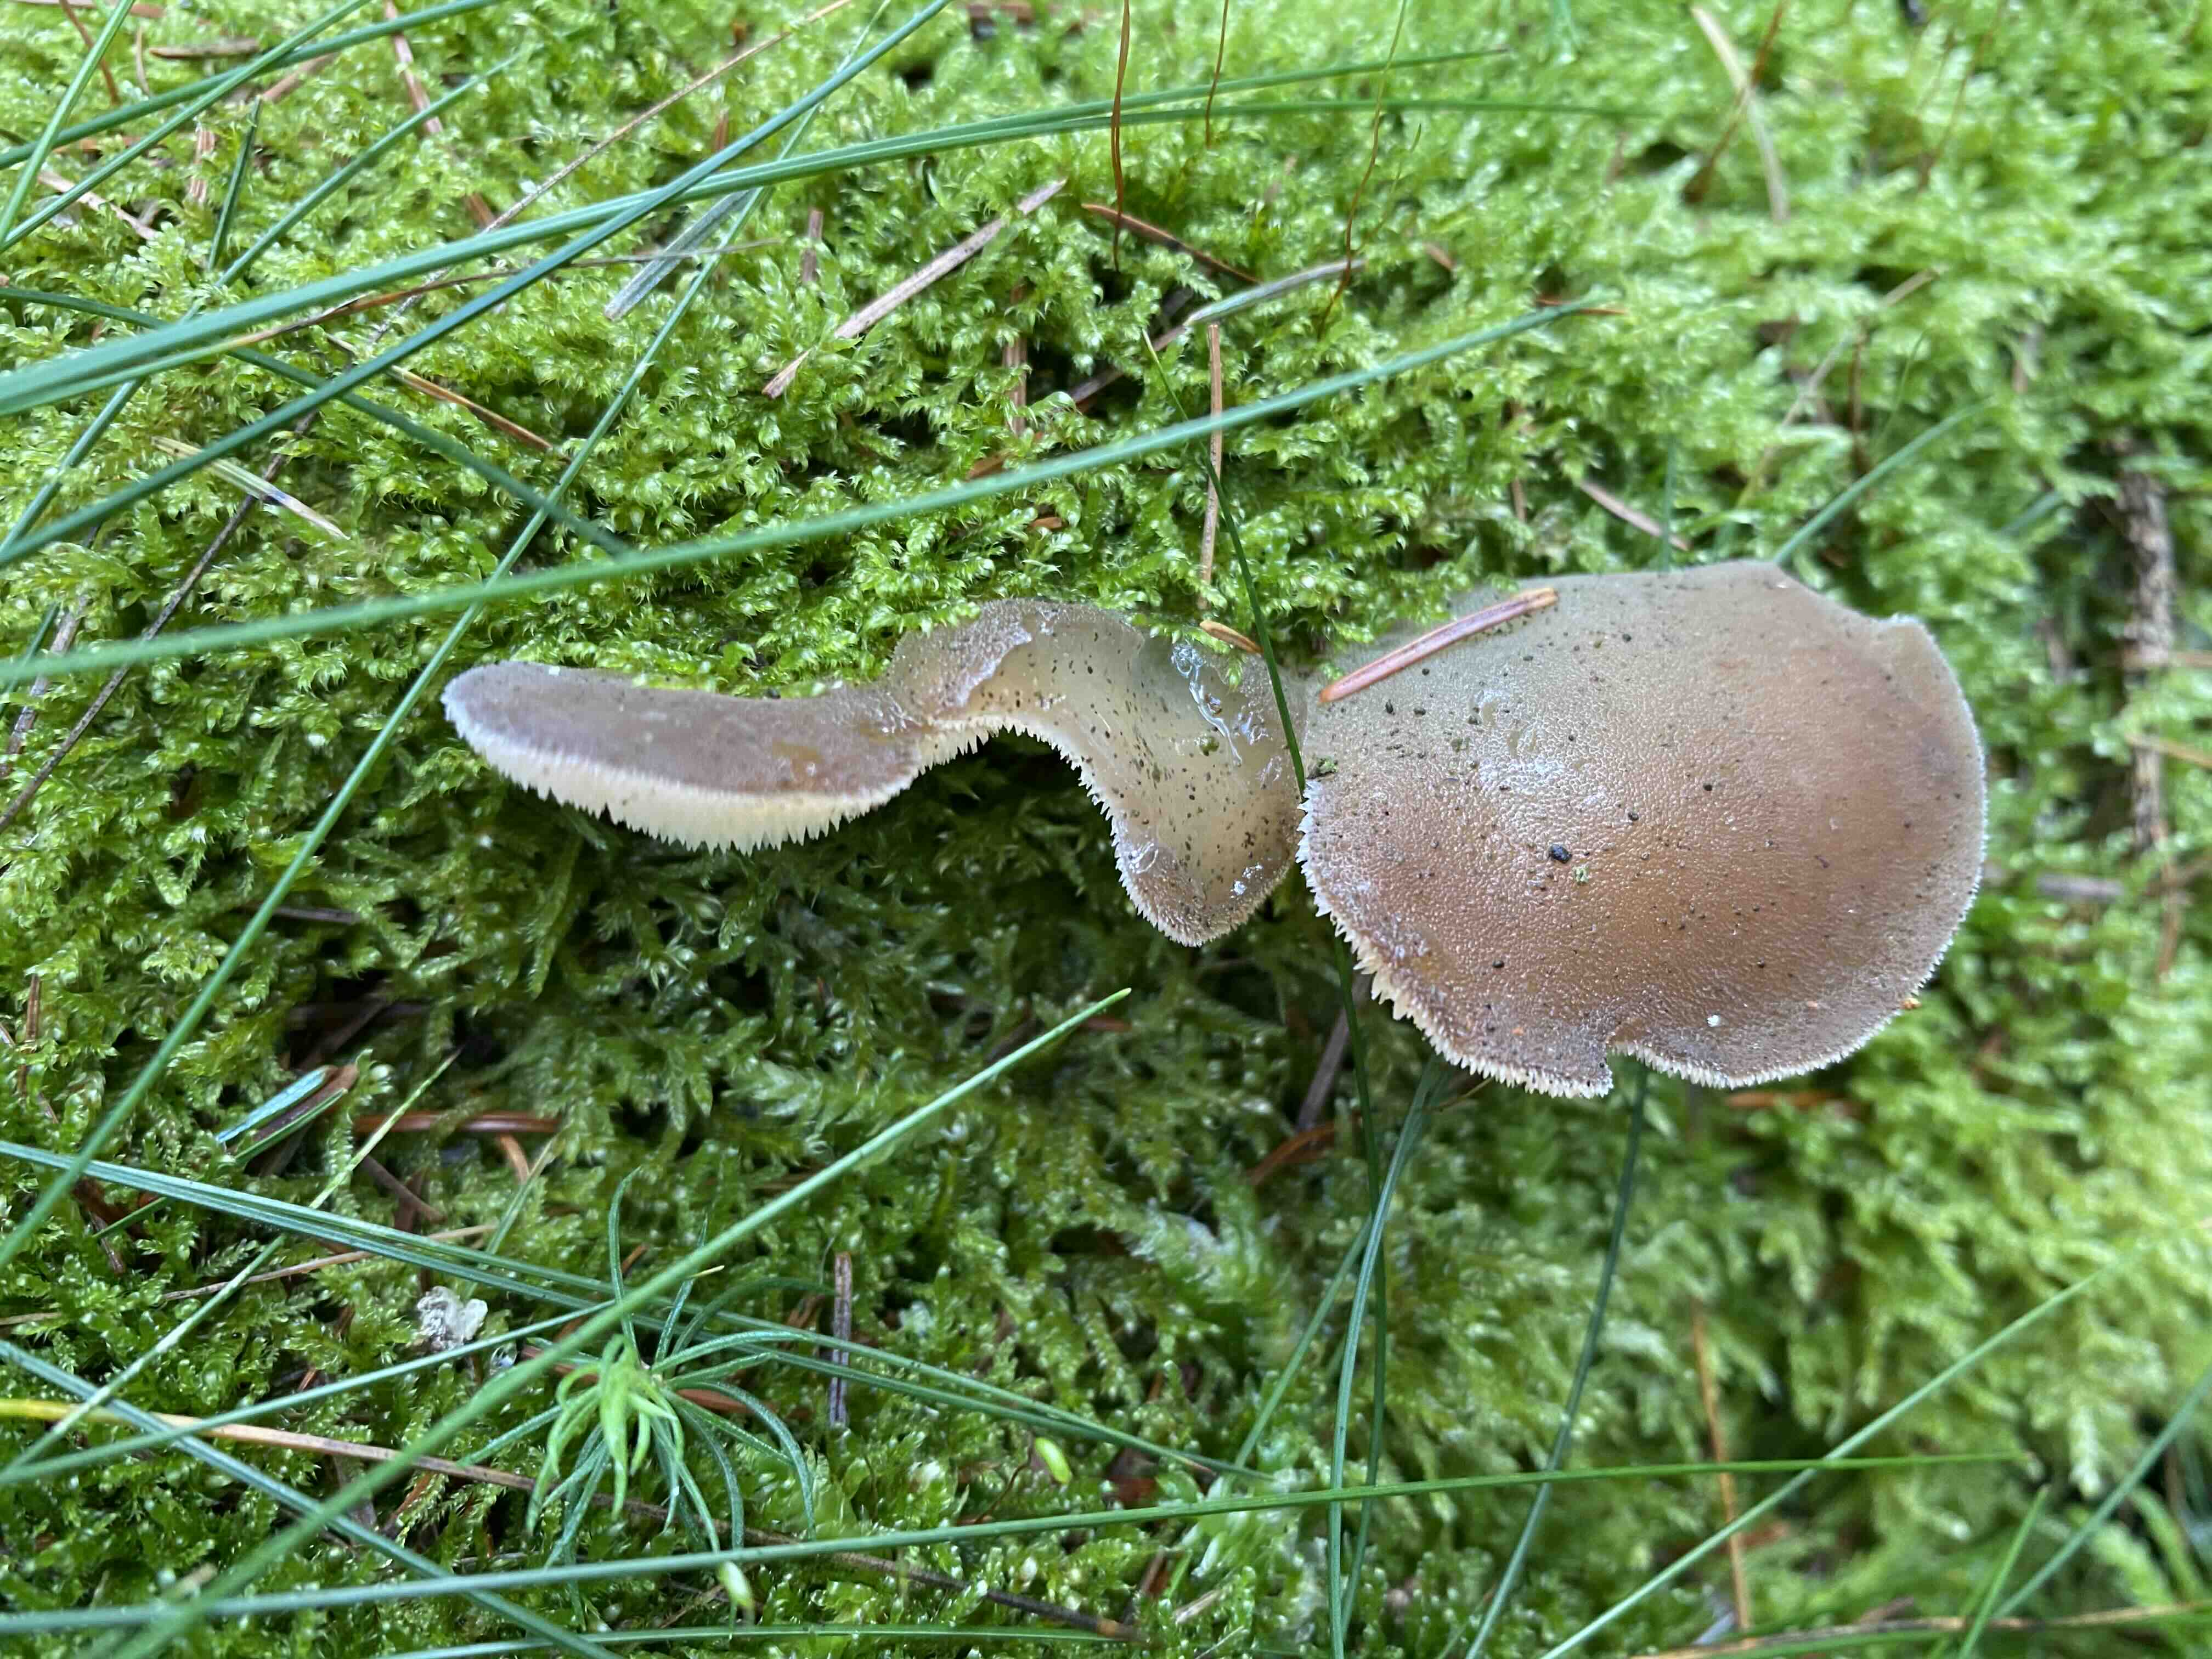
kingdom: Fungi
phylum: Basidiomycota
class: Agaricomycetes
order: Auriculariales
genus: Pseudohydnum
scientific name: Pseudohydnum gelatinosum
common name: bævretand
